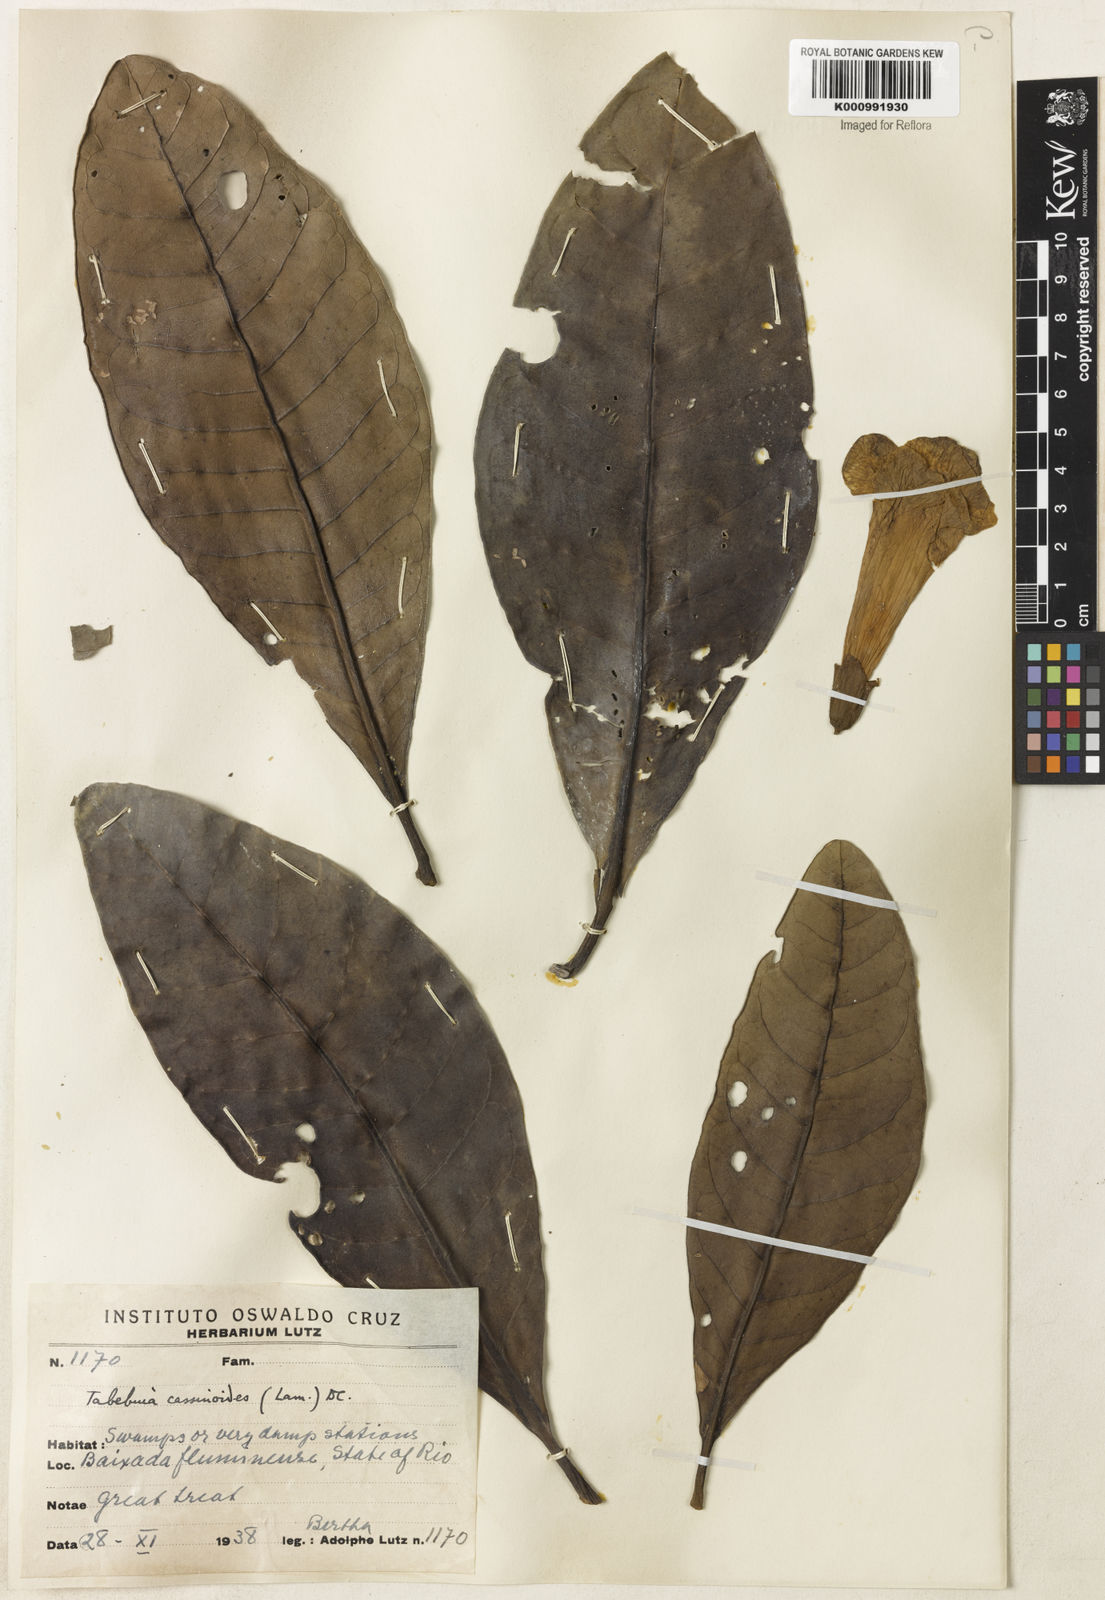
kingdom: Plantae
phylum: Tracheophyta
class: Magnoliopsida
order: Lamiales
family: Bignoniaceae
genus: Tabebuia
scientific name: Tabebuia cassinoides
